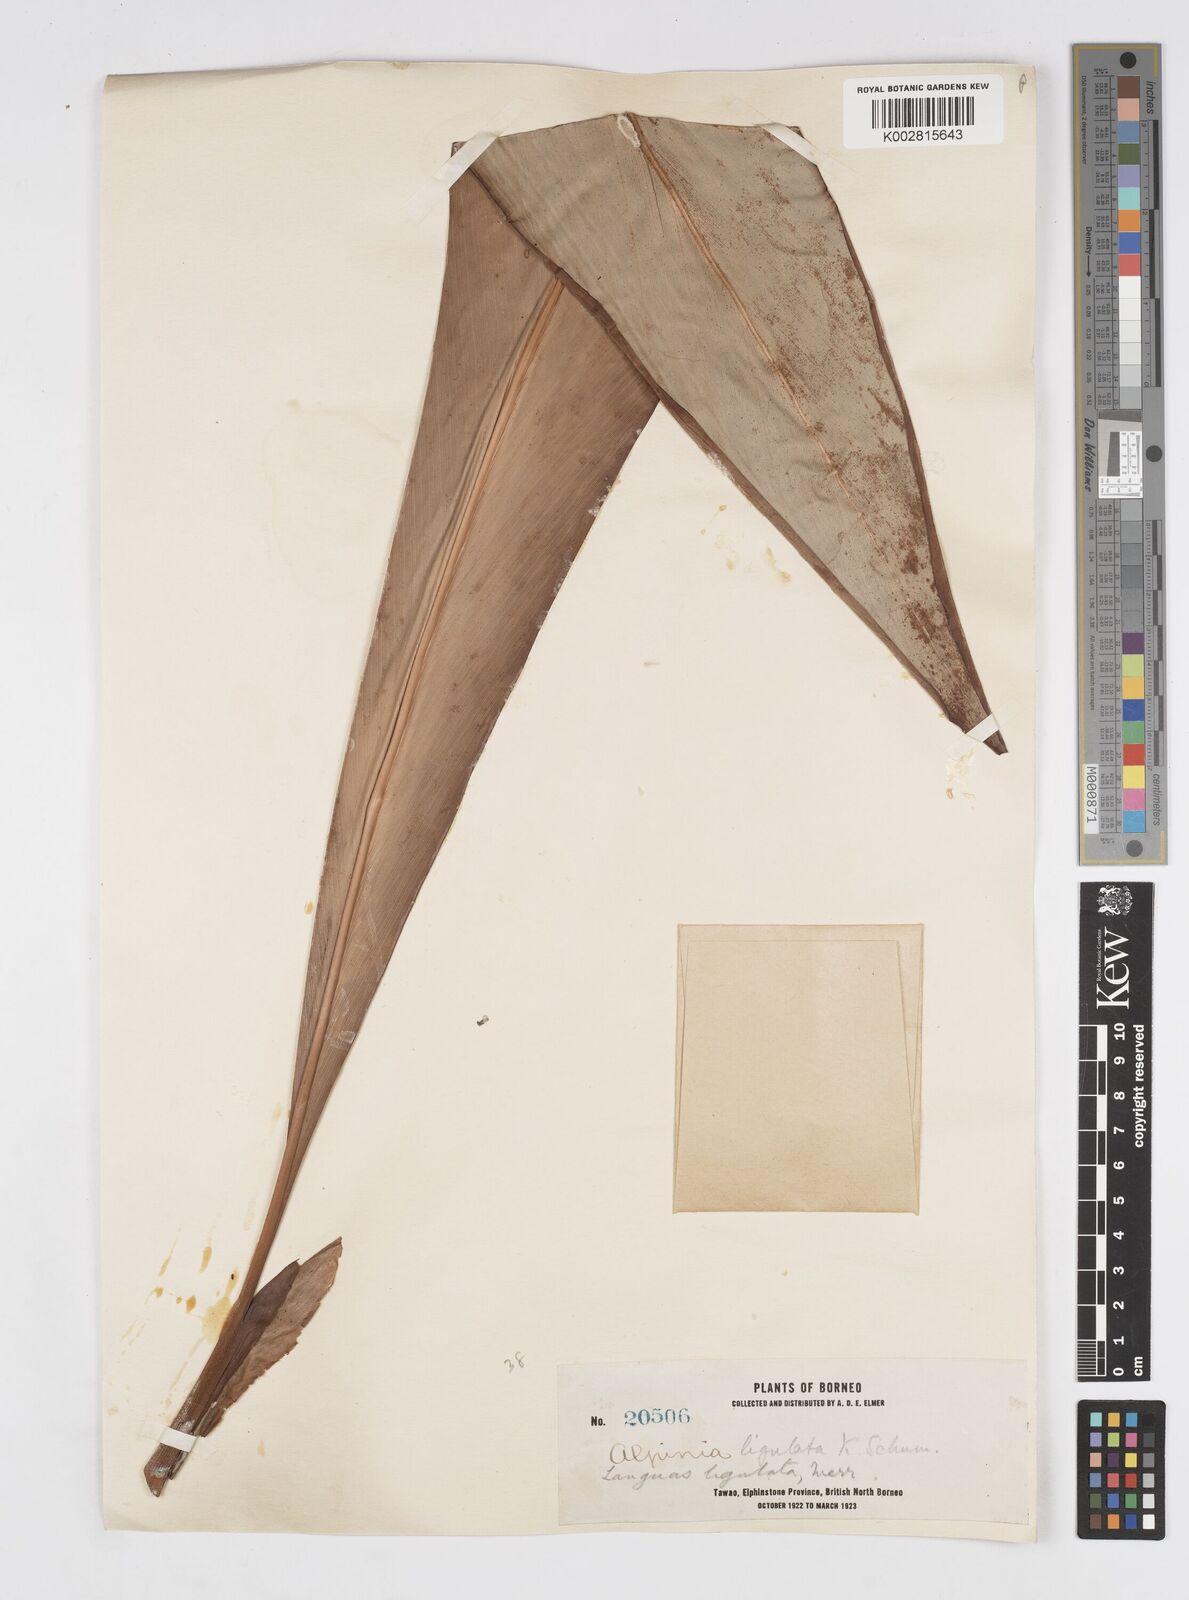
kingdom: Plantae
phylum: Tracheophyta
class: Liliopsida
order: Zingiberales
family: Zingiberaceae
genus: Alpinia
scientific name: Alpinia ligulata
